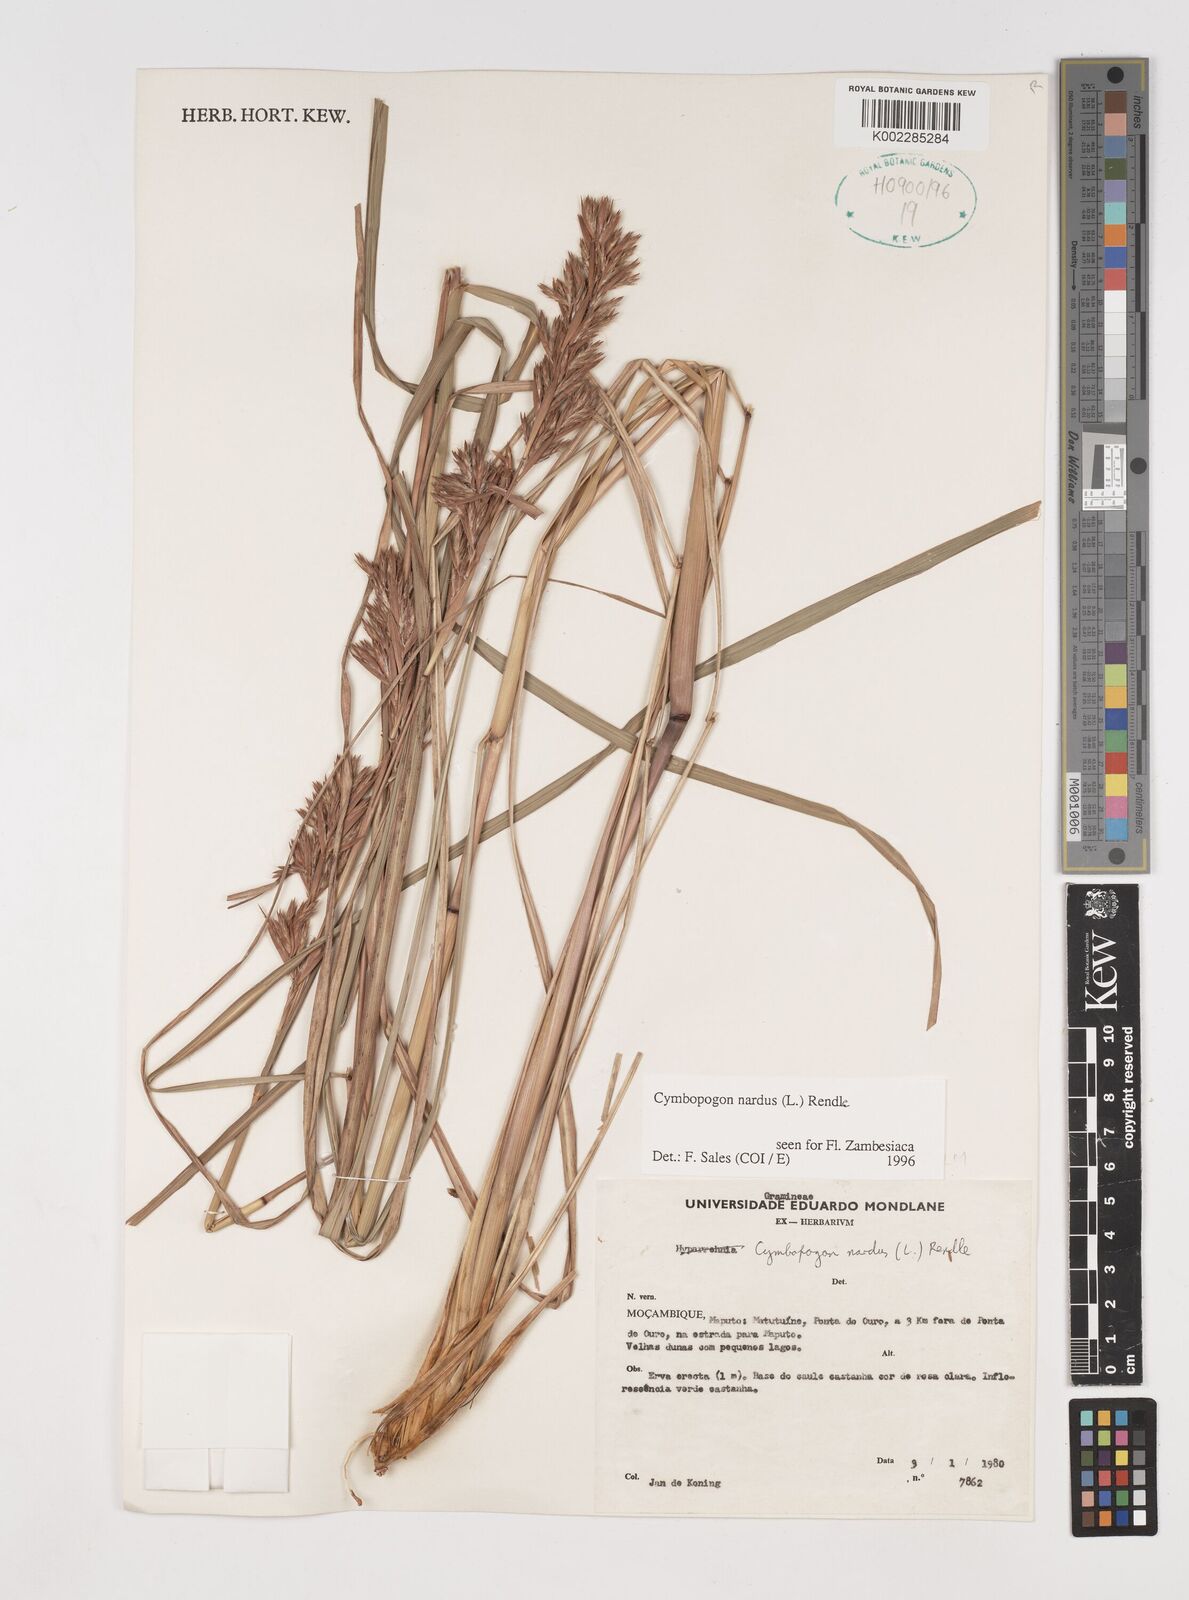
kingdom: Plantae
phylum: Tracheophyta
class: Liliopsida
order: Poales
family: Poaceae
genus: Cymbopogon
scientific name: Cymbopogon nardus
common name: Giant turpentine grass
